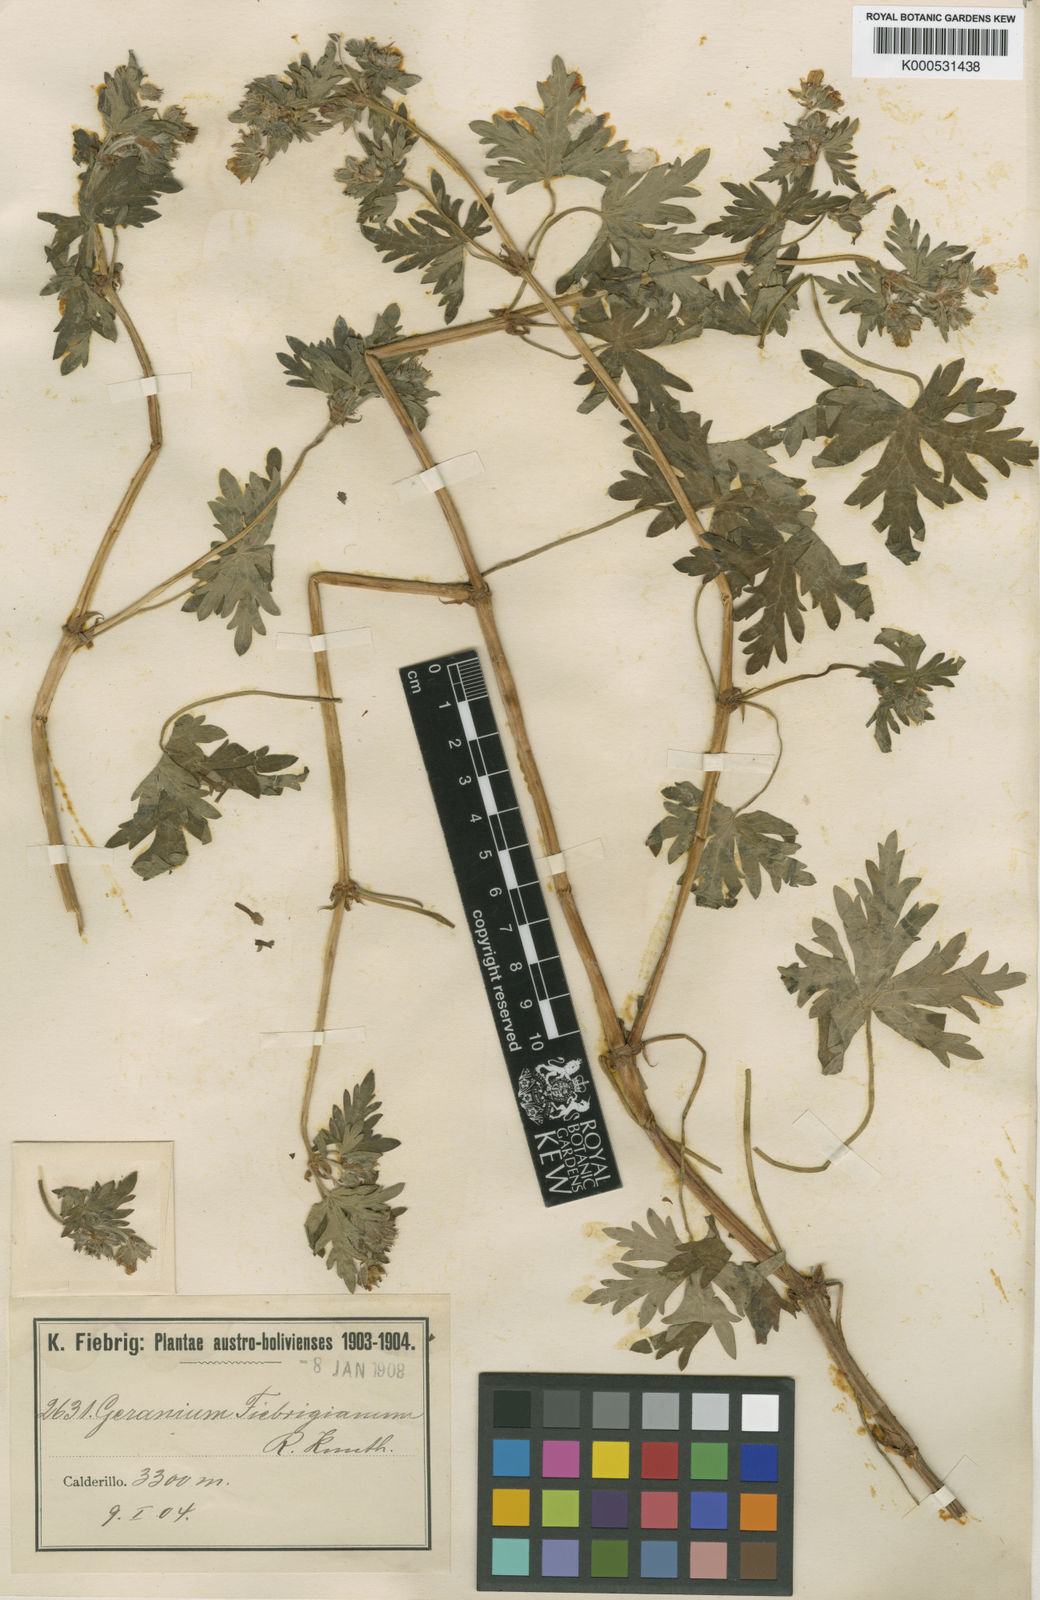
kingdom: Plantae
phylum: Tracheophyta
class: Magnoliopsida
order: Geraniales
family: Geraniaceae
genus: Geranium
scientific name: Geranium fallax
